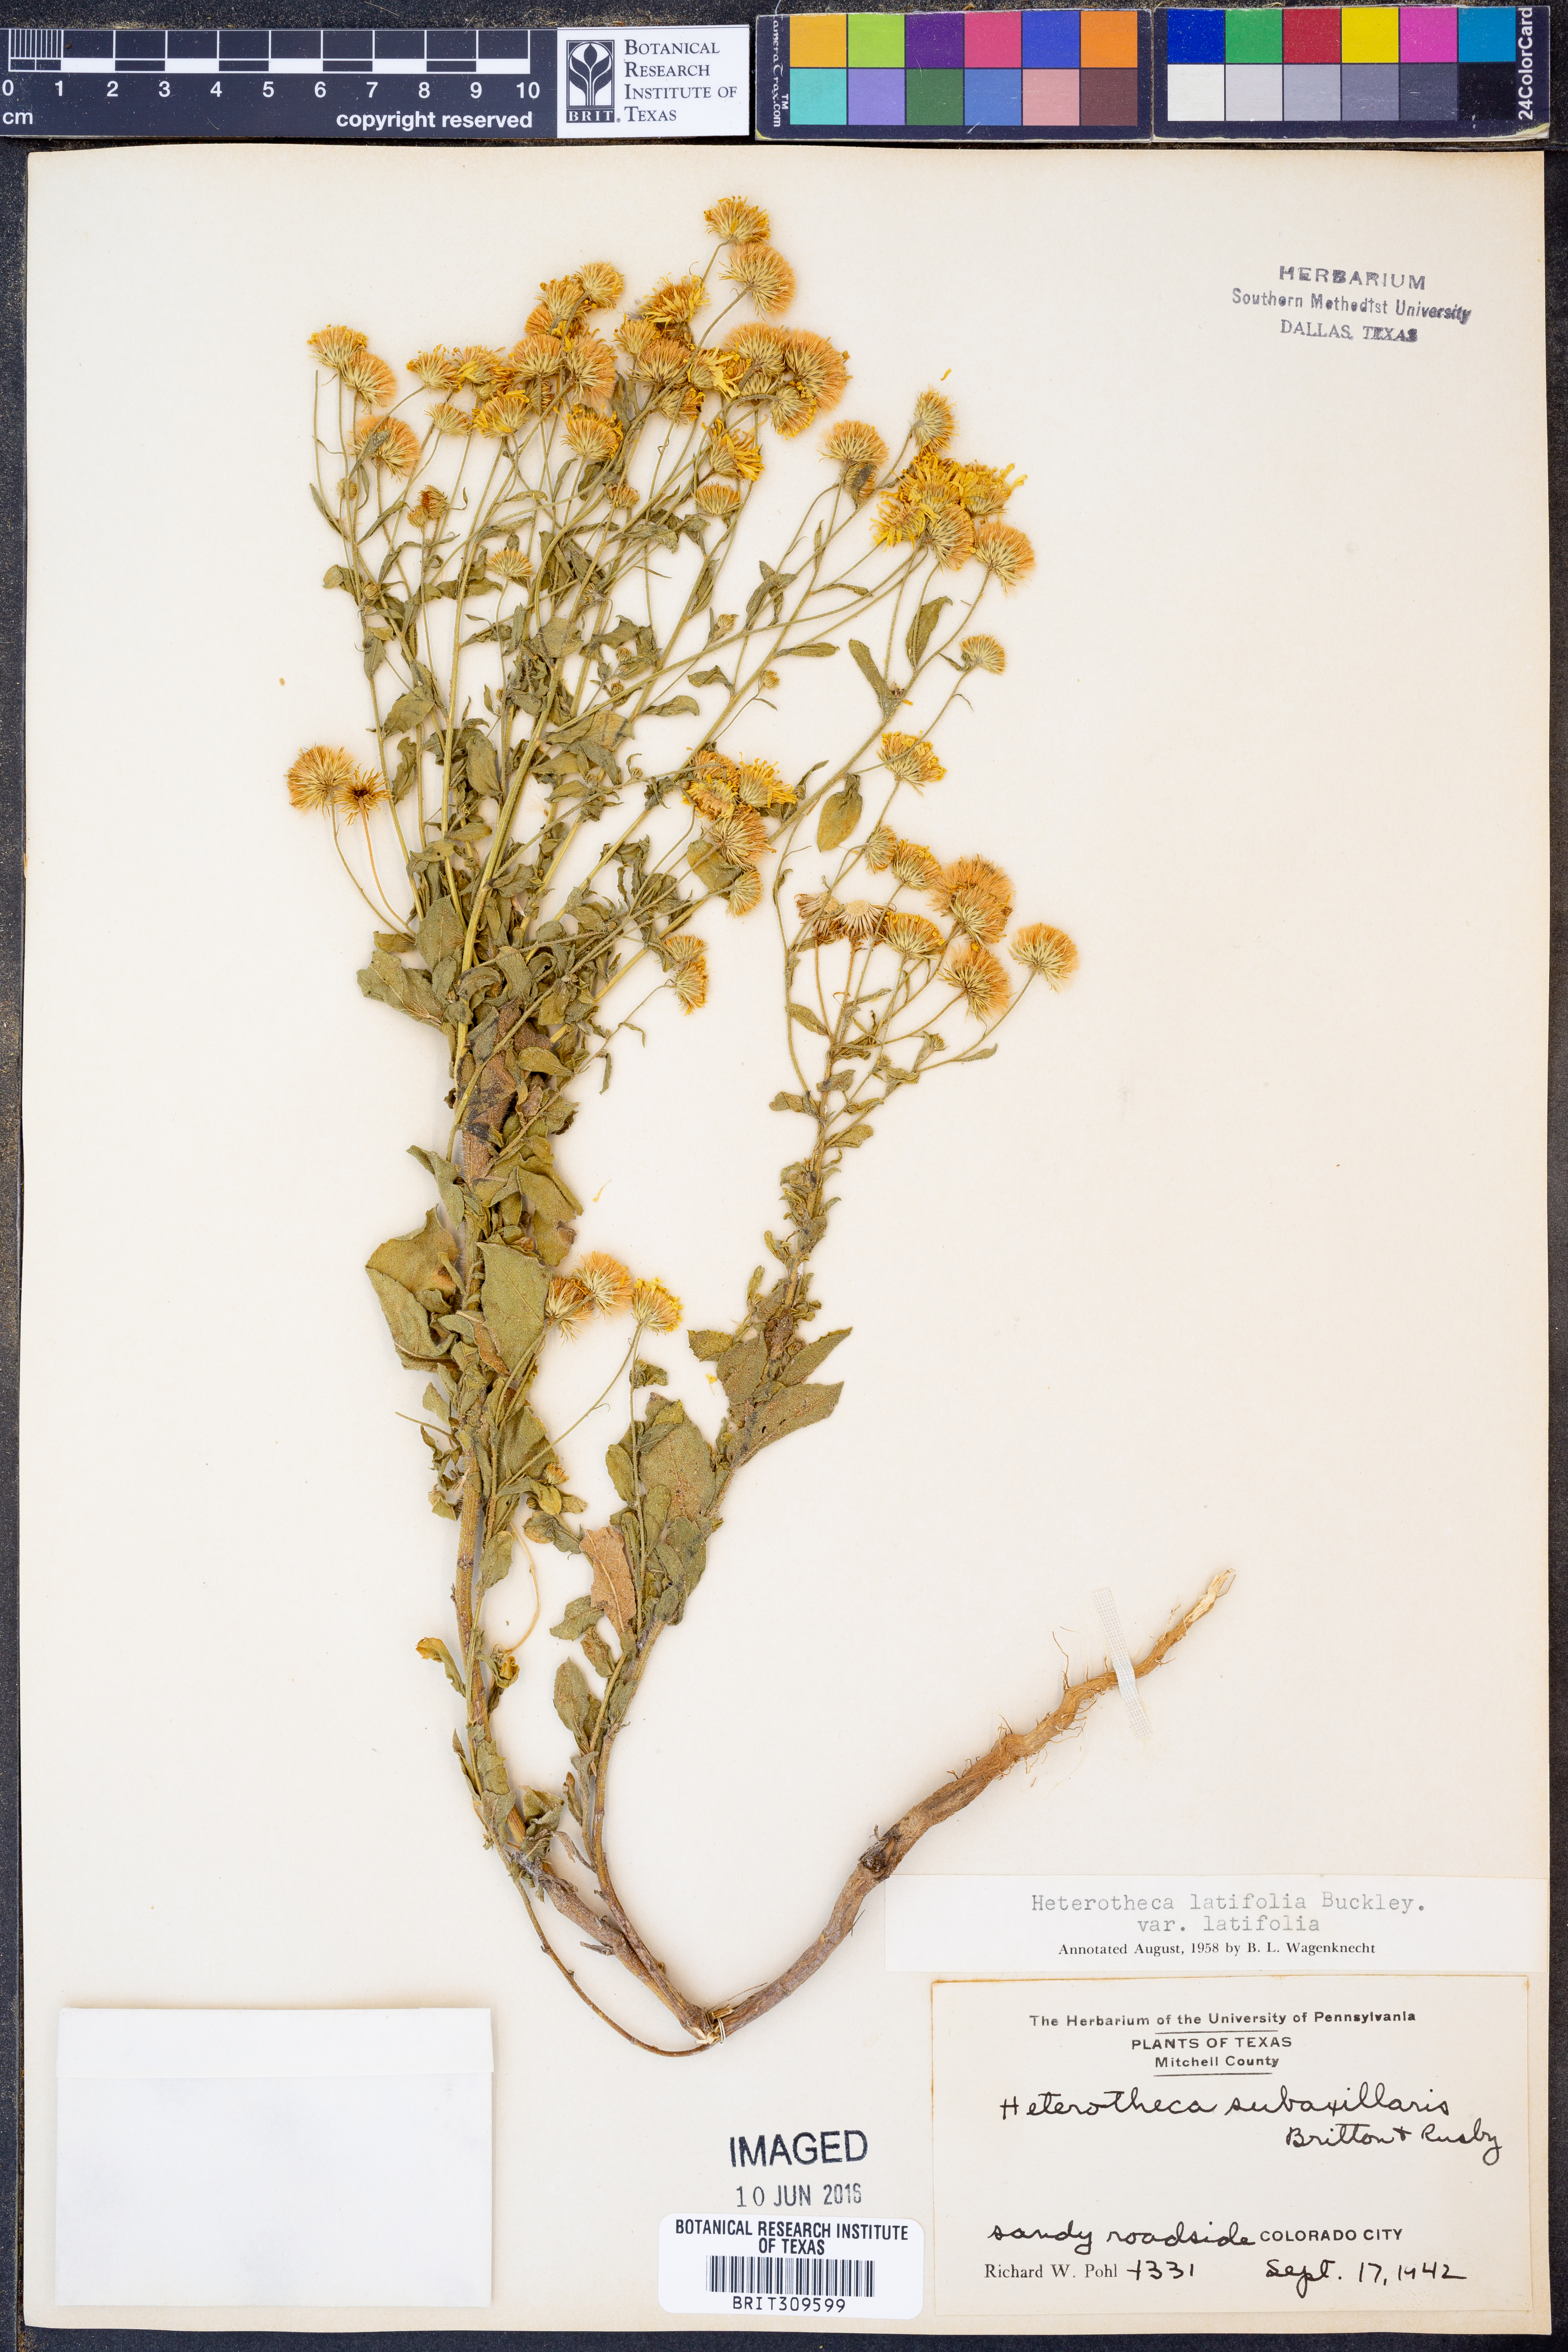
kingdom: Plantae
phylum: Tracheophyta
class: Magnoliopsida
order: Asterales
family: Asteraceae
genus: Heterotheca
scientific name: Heterotheca subaxillaris
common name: Camphorweed
